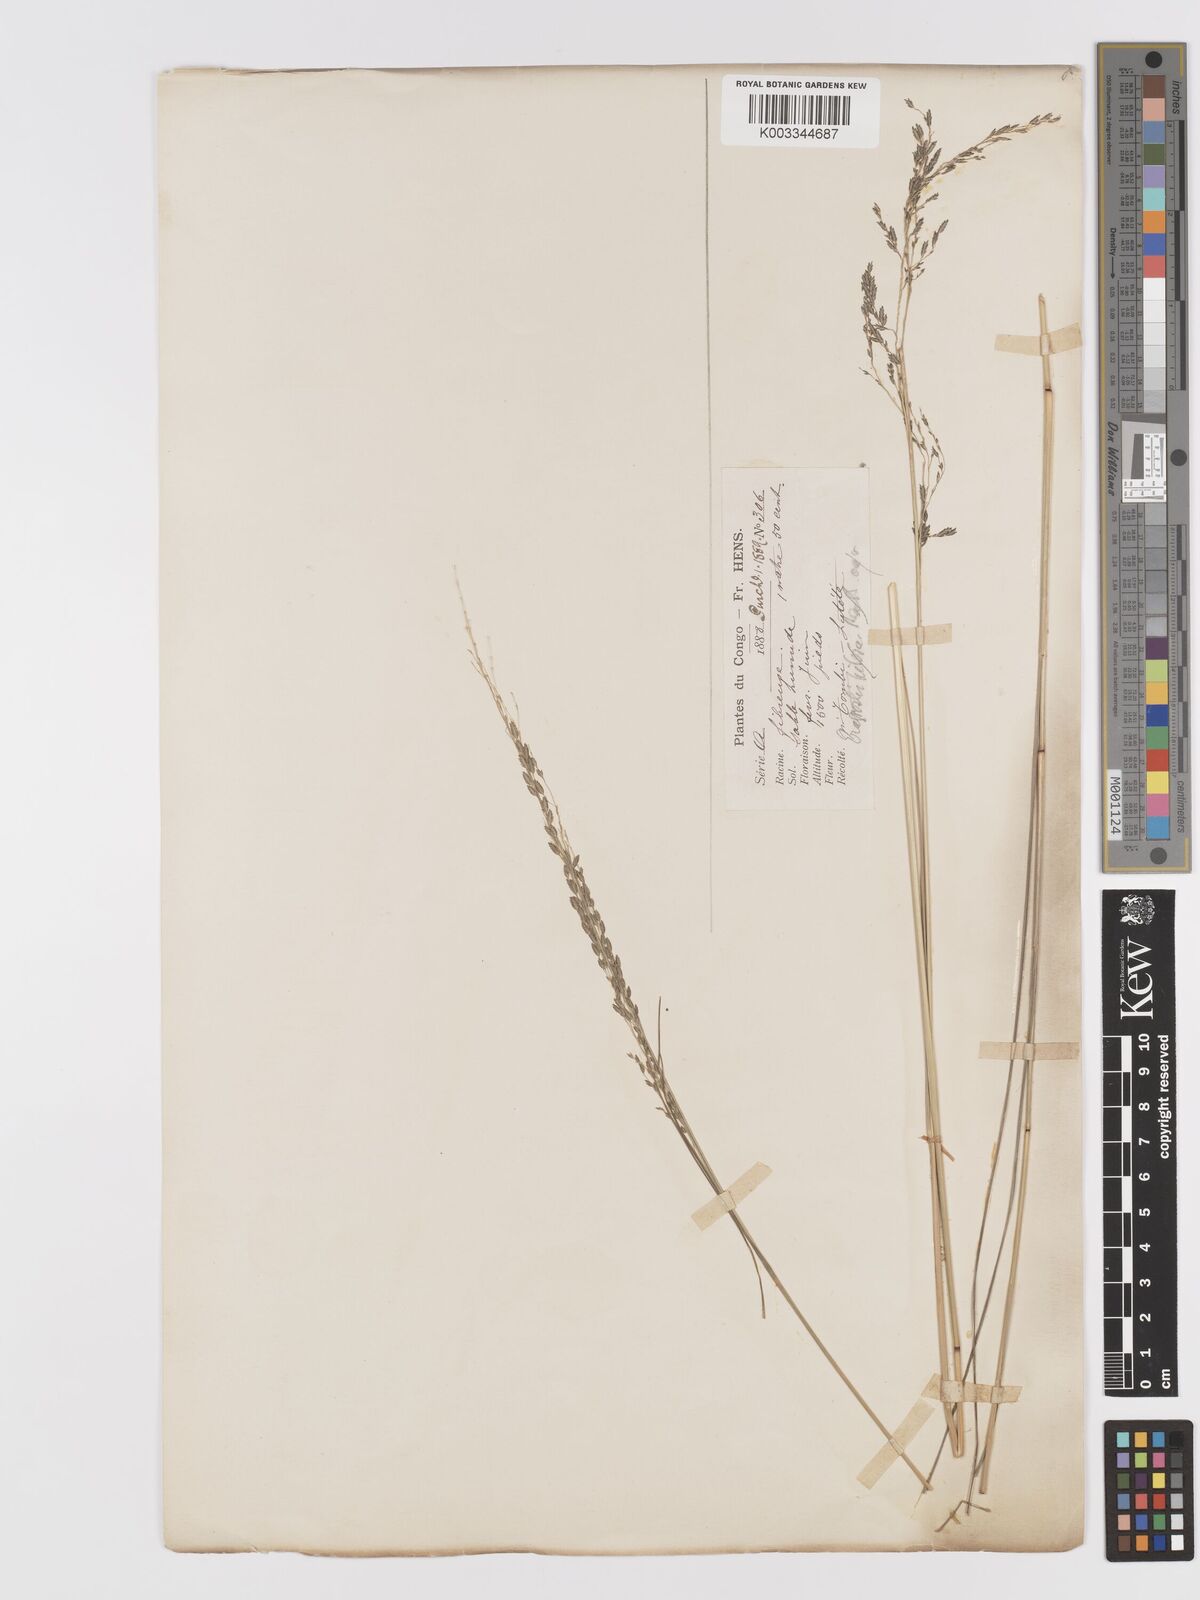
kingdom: Plantae
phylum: Tracheophyta
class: Liliopsida
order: Poales
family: Poaceae
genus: Eragrostis
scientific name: Eragrostis atrovirens
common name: Thalia lovegrass
